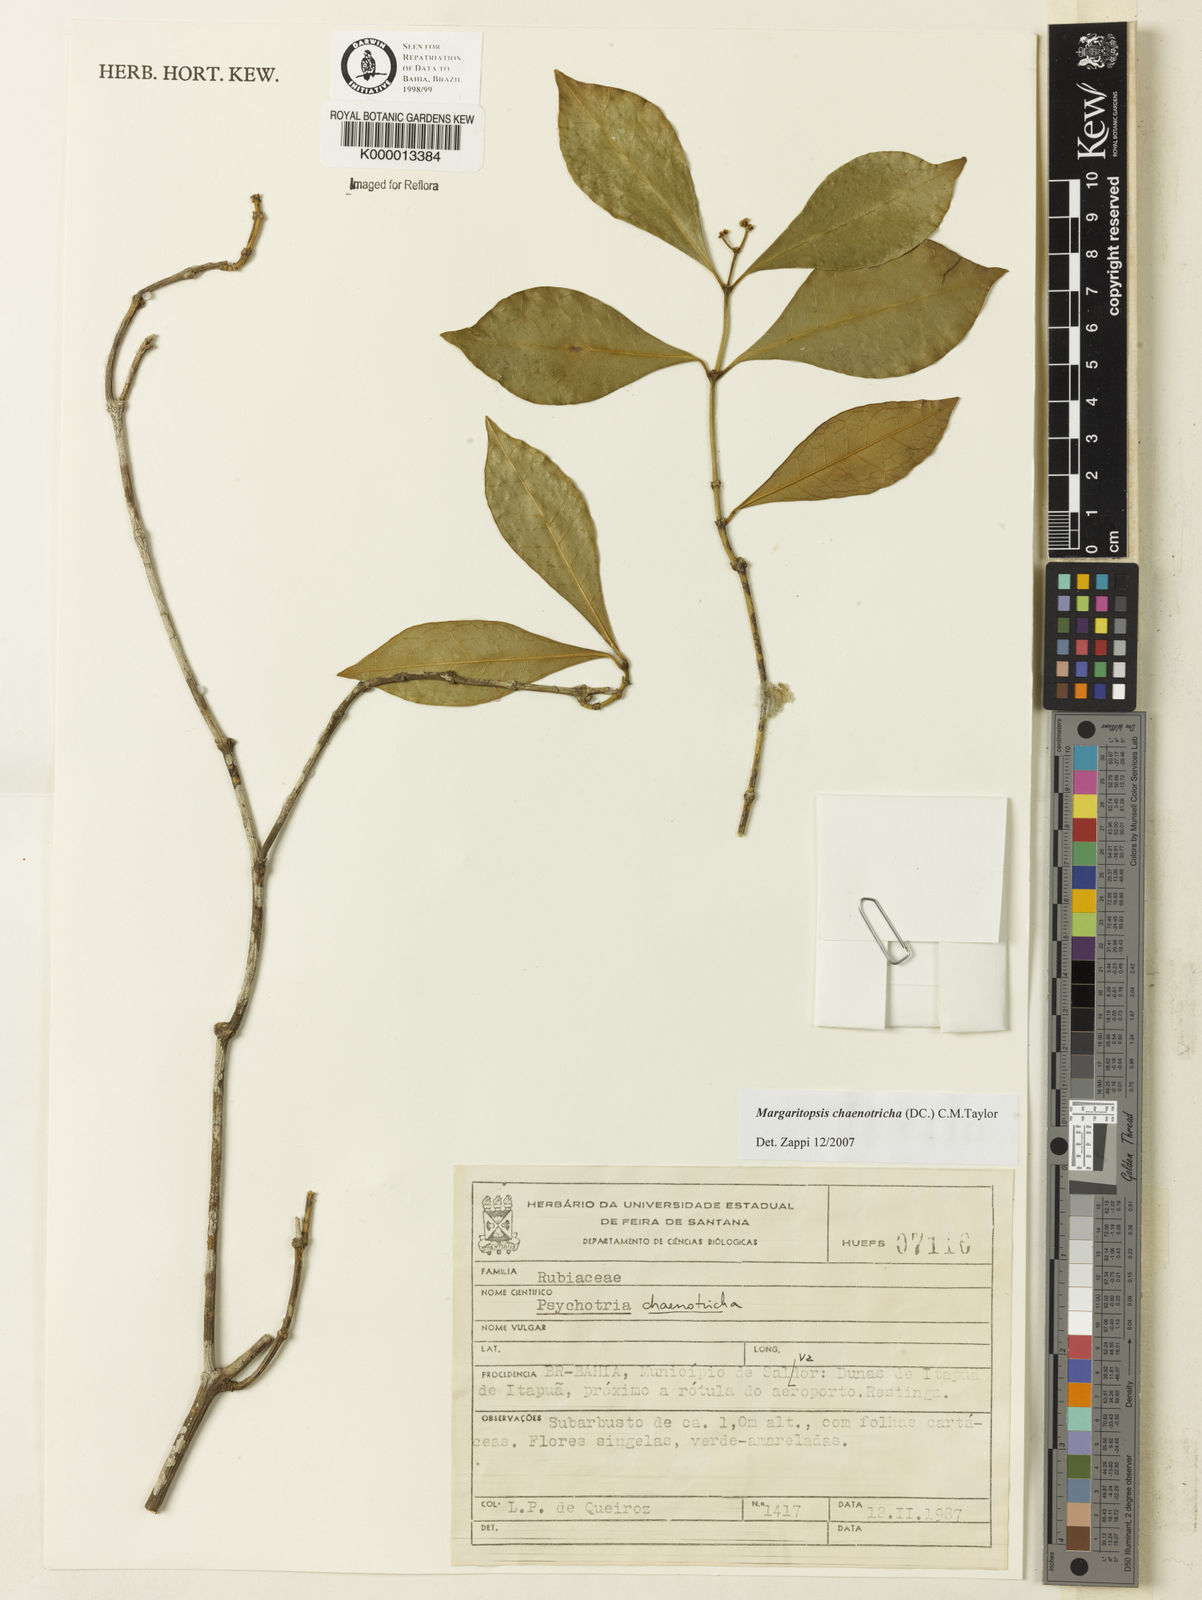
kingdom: Plantae
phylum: Tracheophyta
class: Magnoliopsida
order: Gentianales
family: Rubiaceae
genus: Eumachia
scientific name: Eumachia chaenotricha
